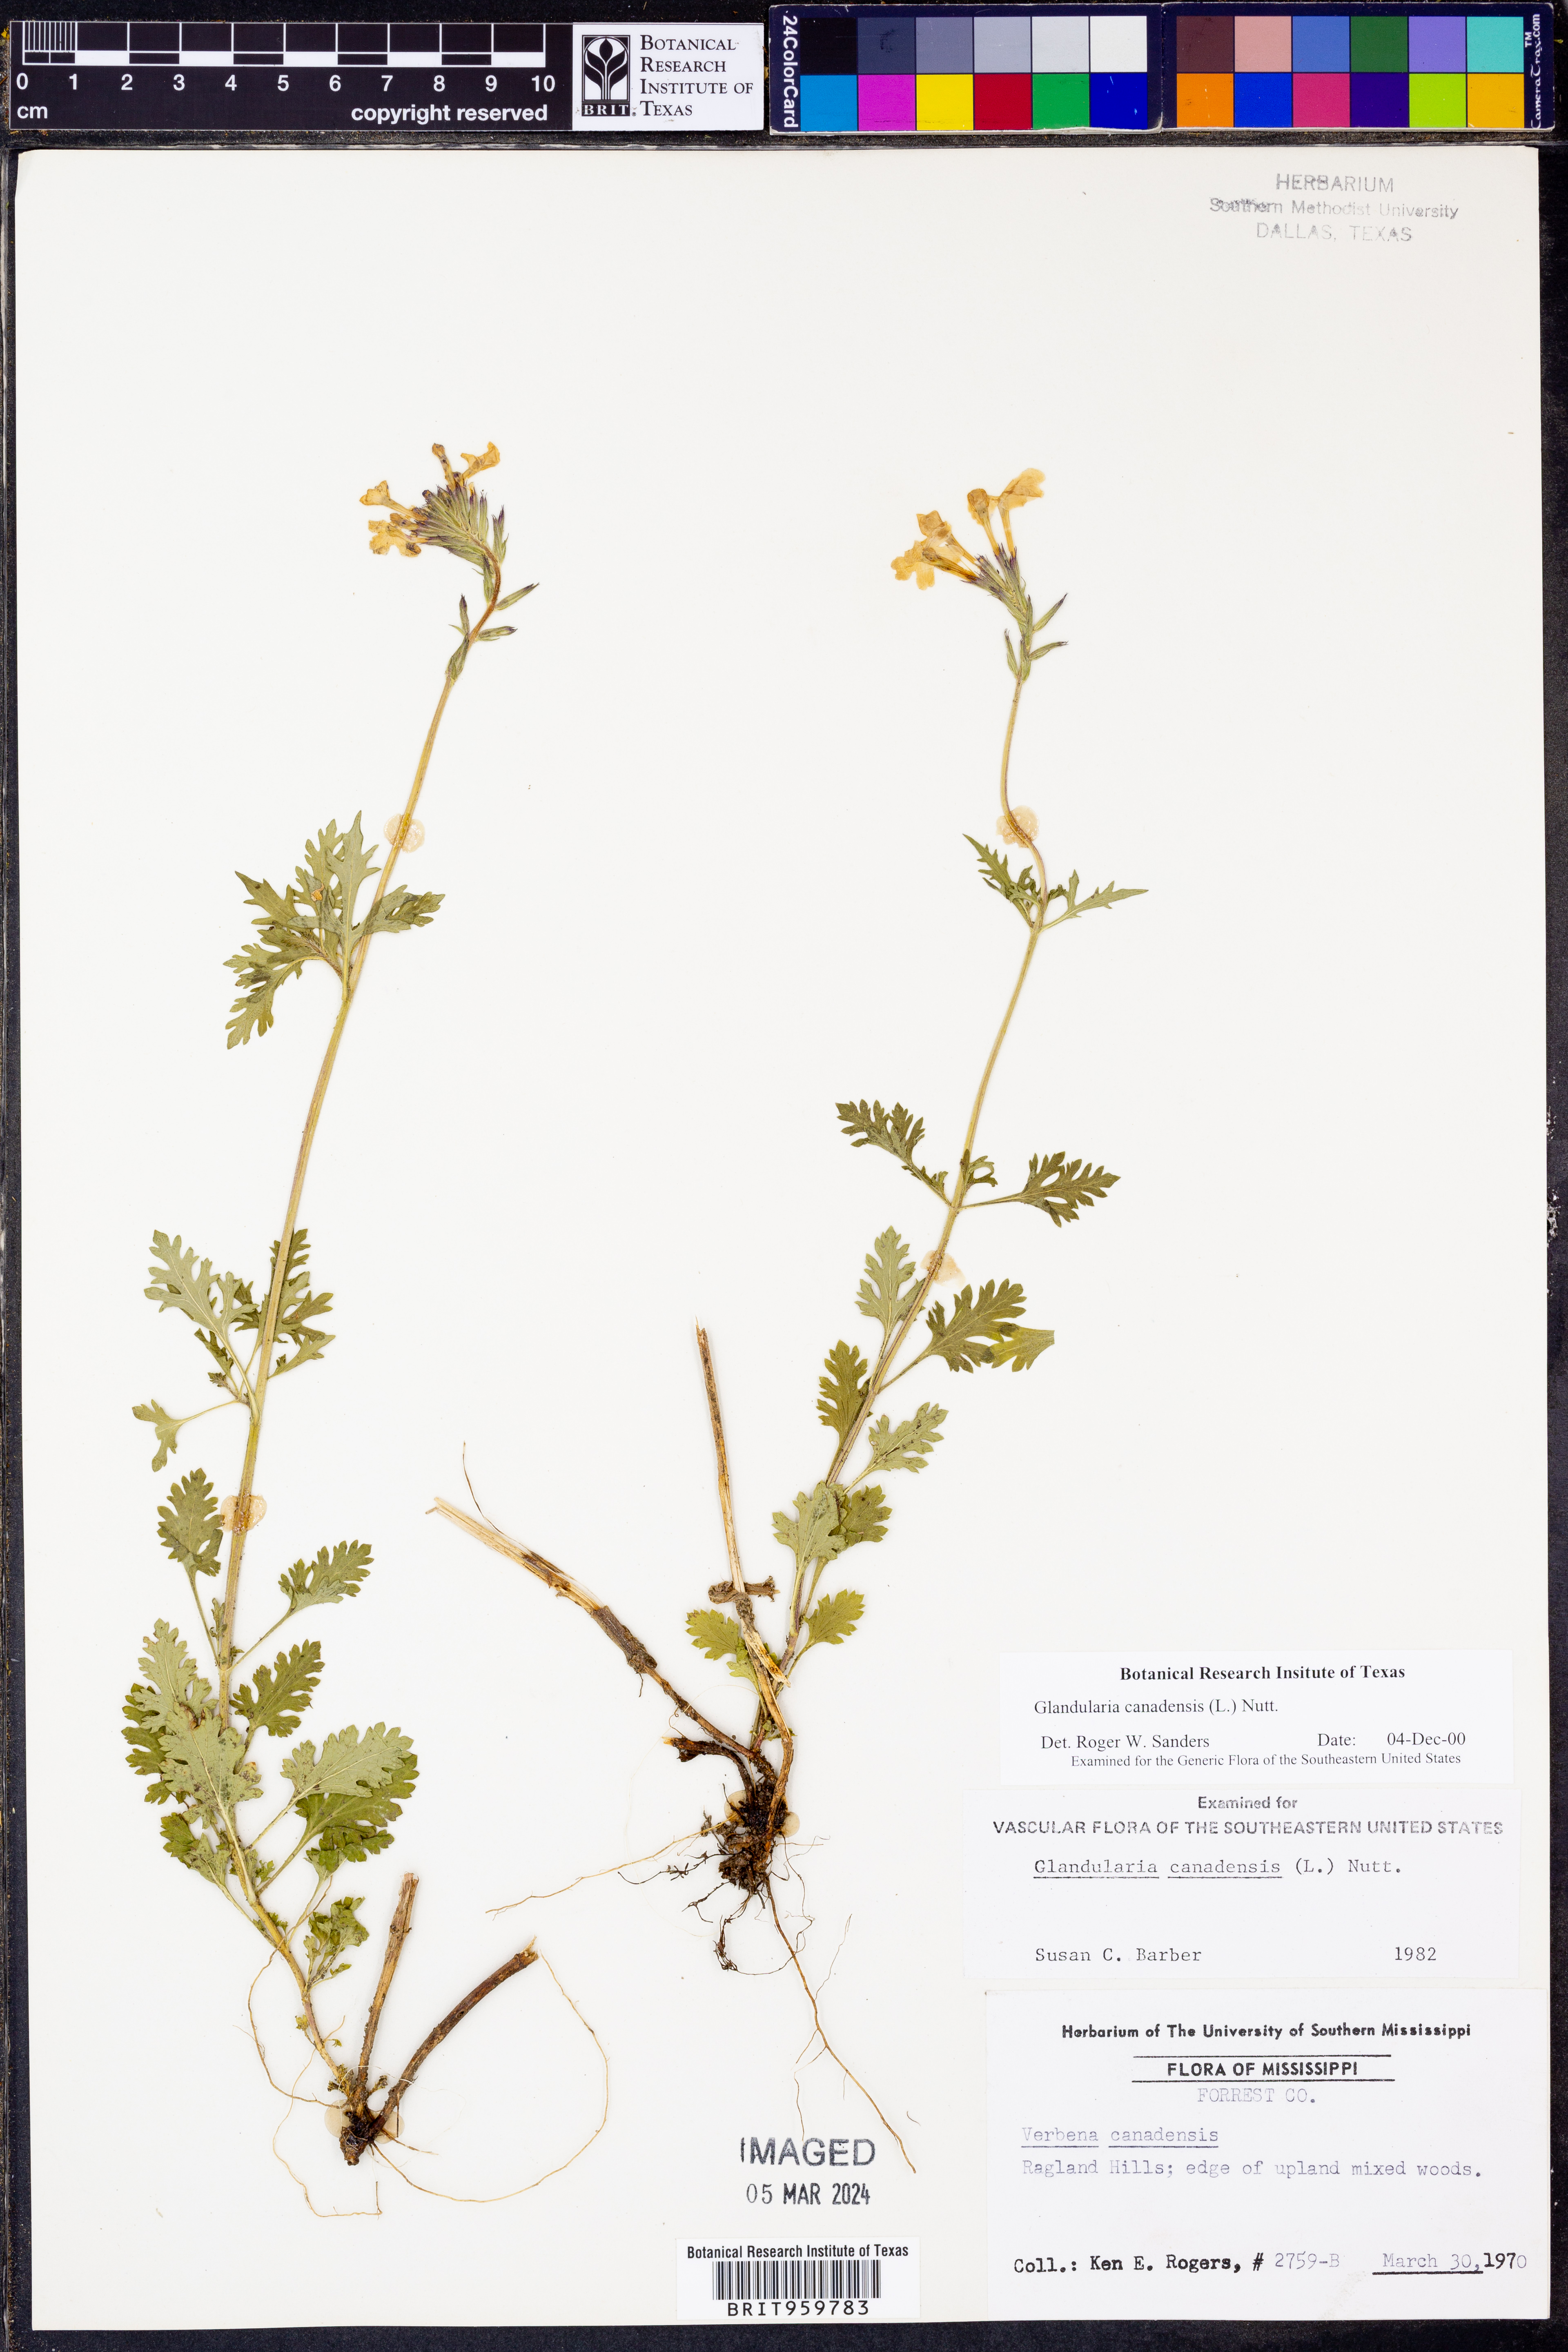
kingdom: Plantae
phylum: Tracheophyta
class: Magnoliopsida
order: Lamiales
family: Verbenaceae
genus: Verbena
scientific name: Verbena canadensis
